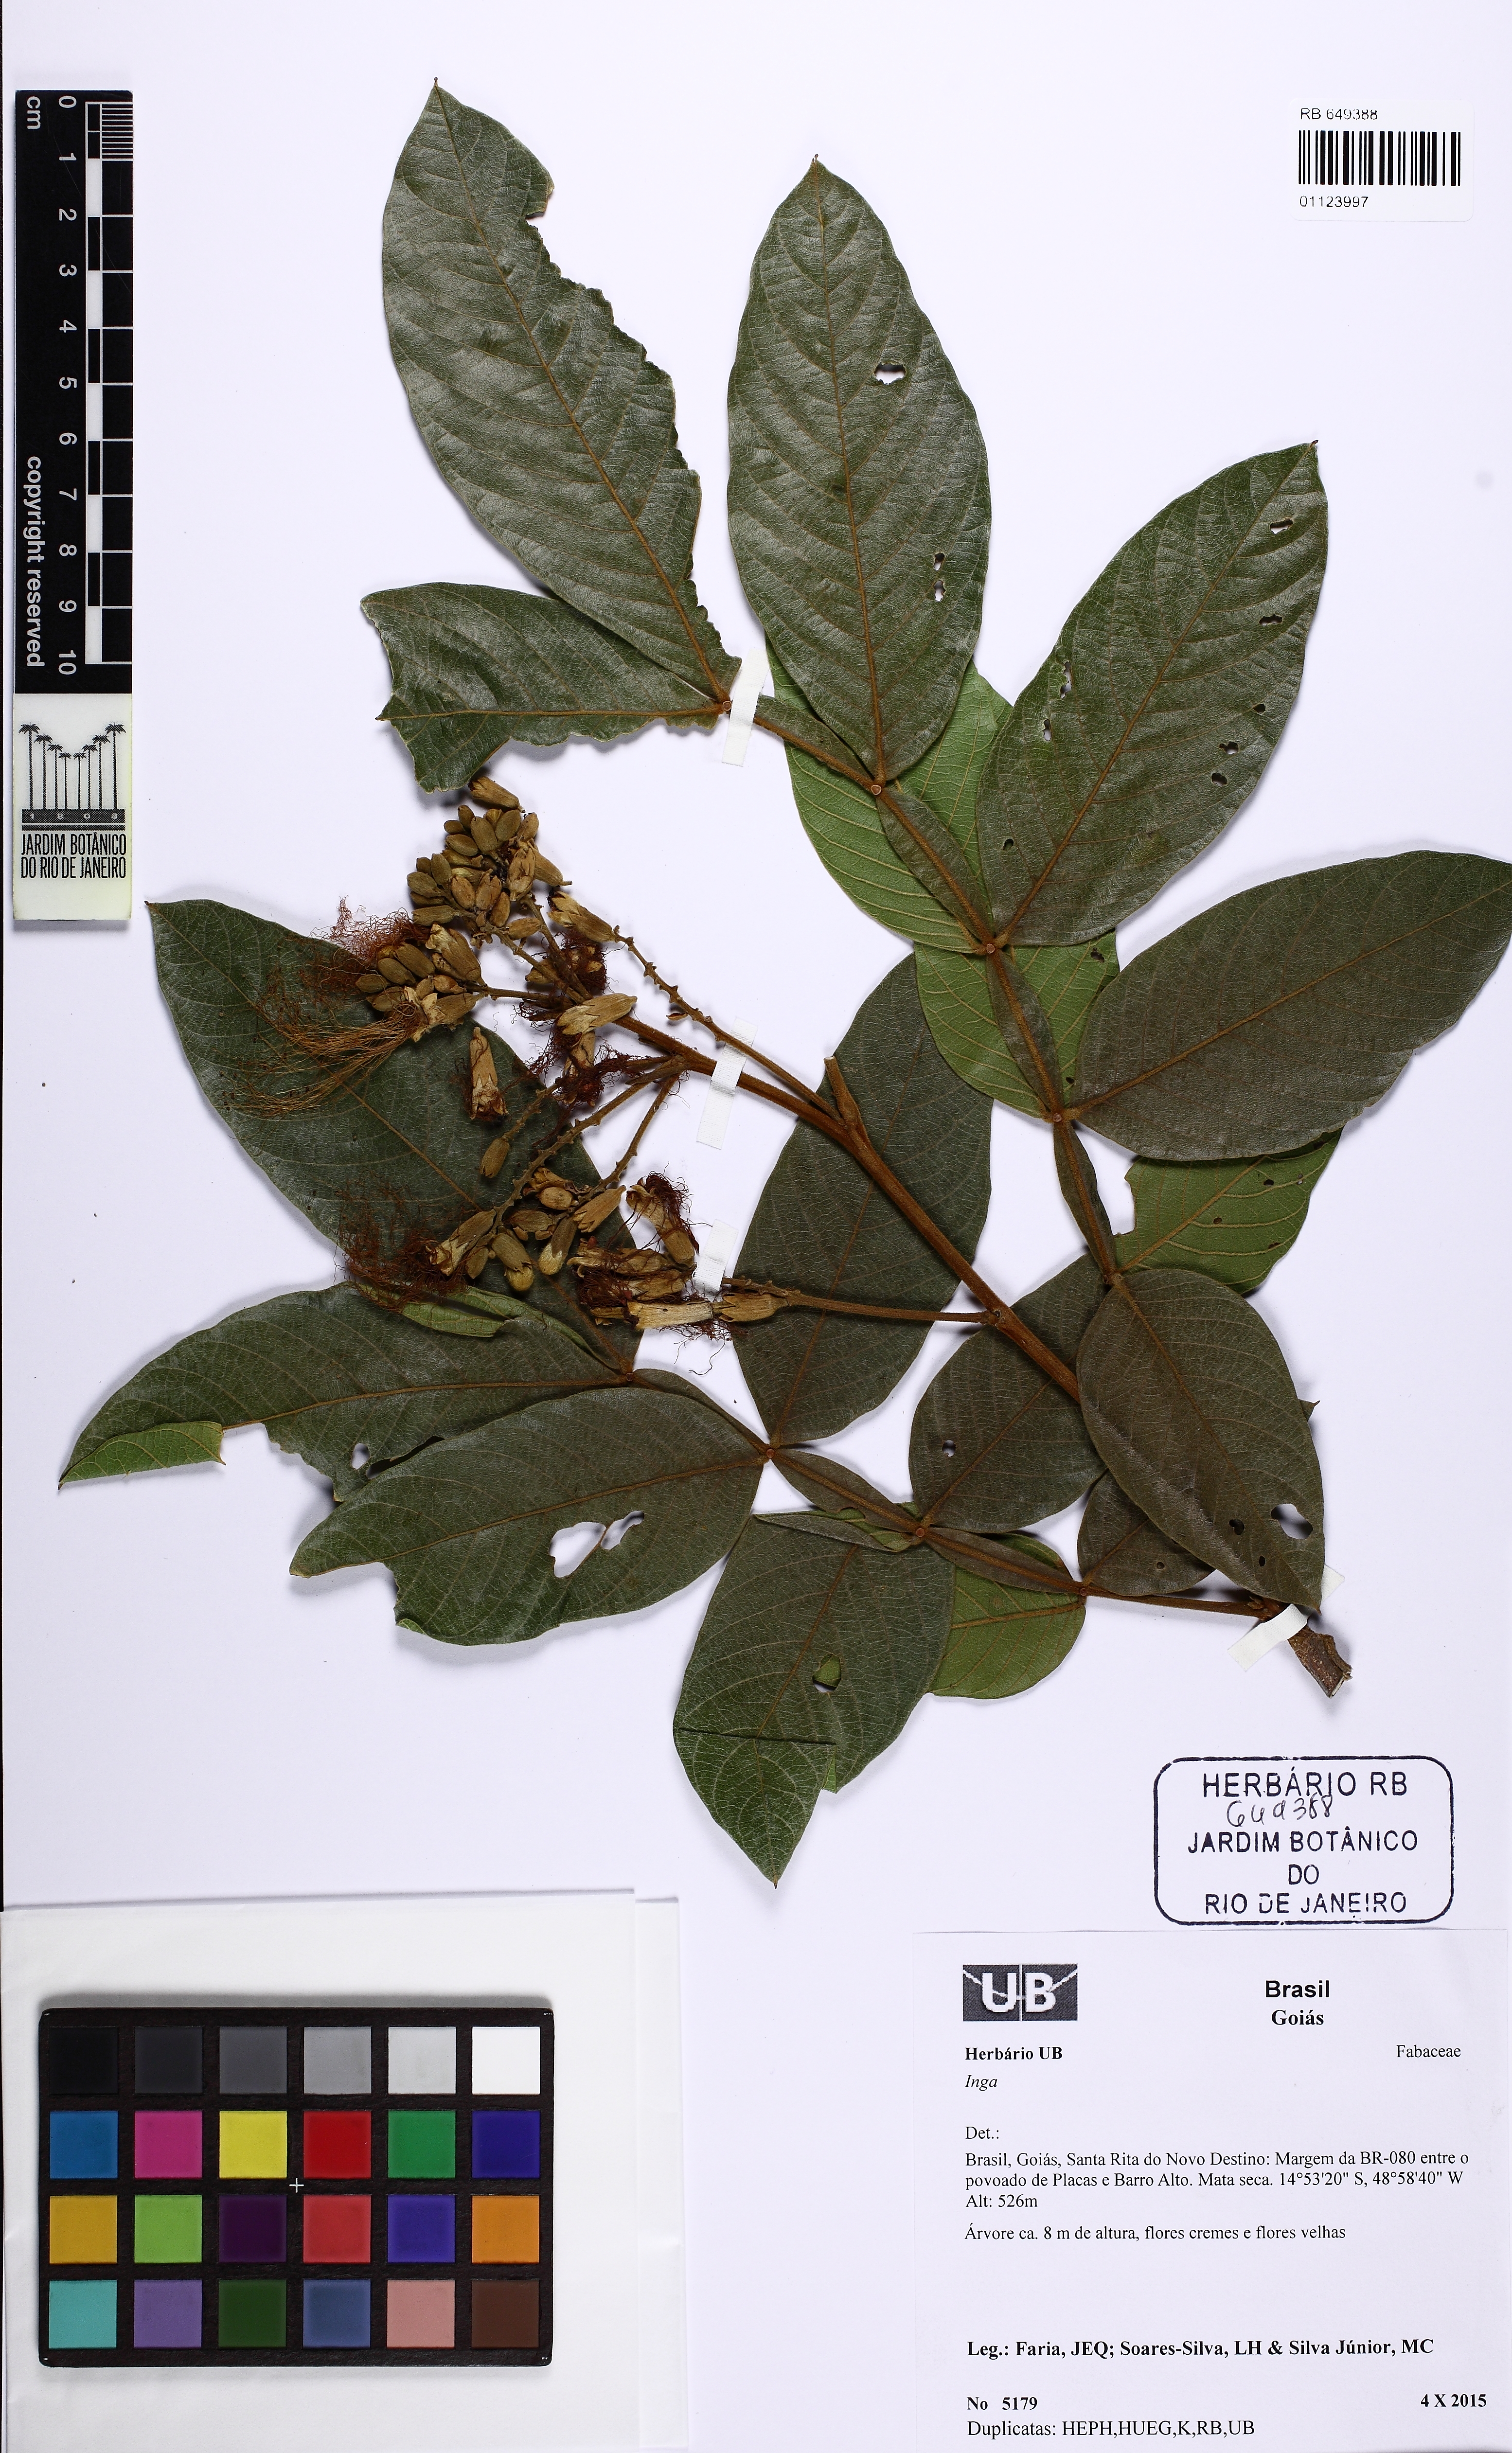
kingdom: Plantae
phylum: Tracheophyta
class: Magnoliopsida
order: Fabales
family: Fabaceae
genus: Inga
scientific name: Inga
